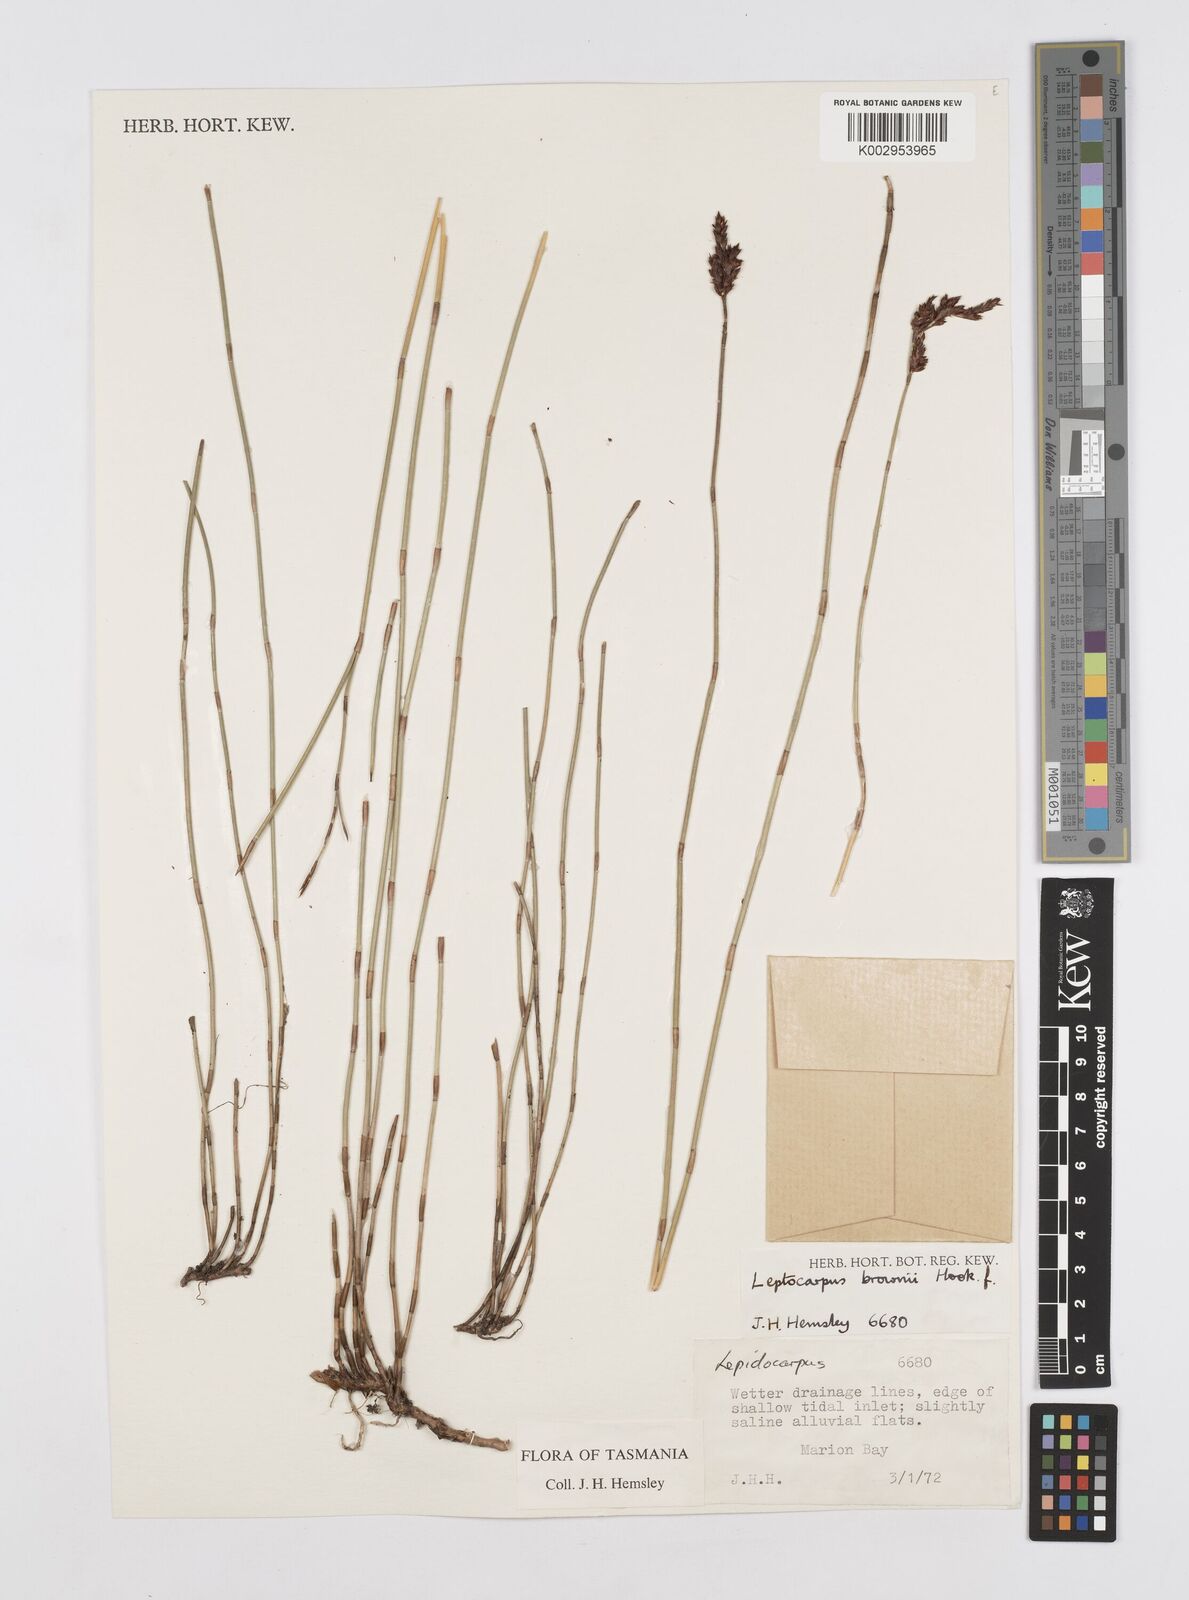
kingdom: Plantae
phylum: Tracheophyta
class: Liliopsida
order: Poales
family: Restionaceae
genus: Apodasmia
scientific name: Apodasmia brownii
